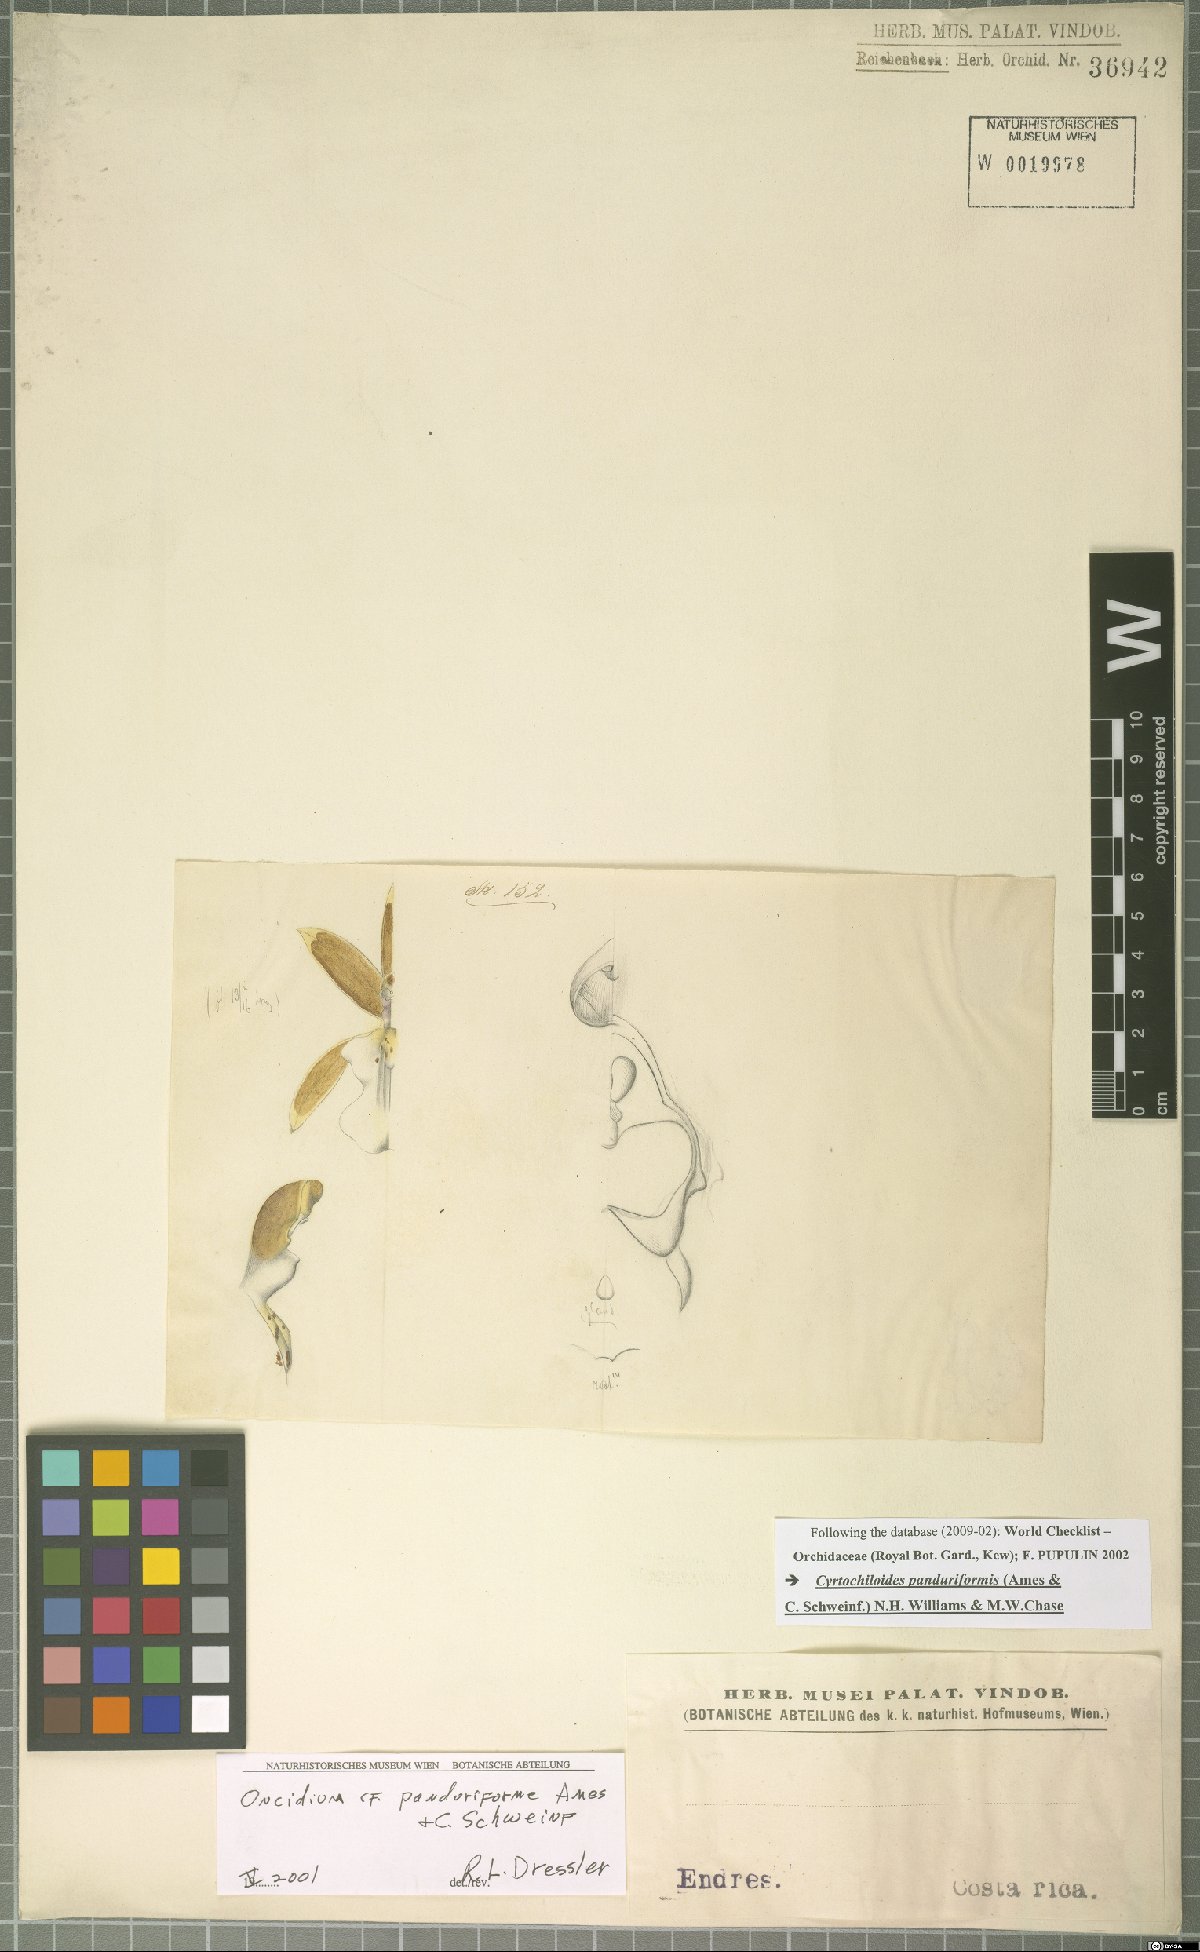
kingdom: Plantae
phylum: Tracheophyta
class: Liliopsida
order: Asparagales
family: Orchidaceae
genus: Cyrtochiloides
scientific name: Cyrtochiloides panduriformis
